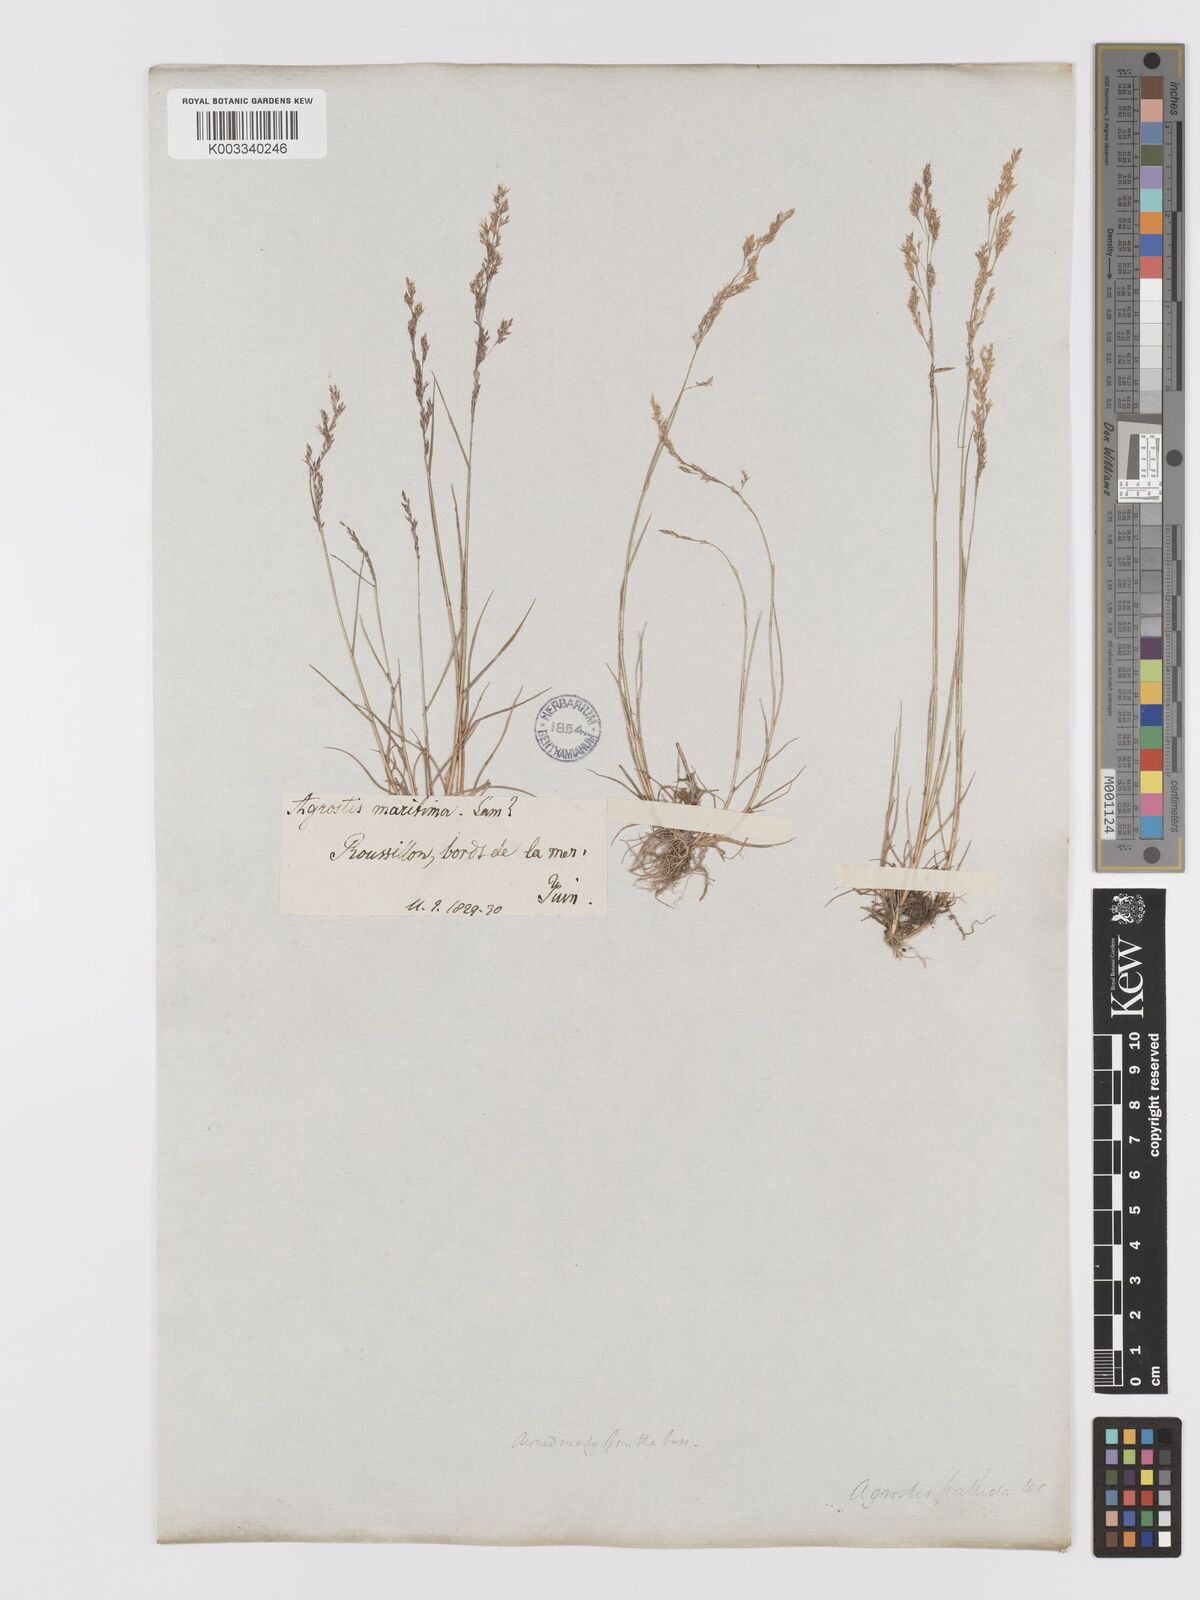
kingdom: Plantae
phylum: Tracheophyta
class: Liliopsida
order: Poales
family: Poaceae
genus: Agrostis
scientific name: Agrostis pourretii
